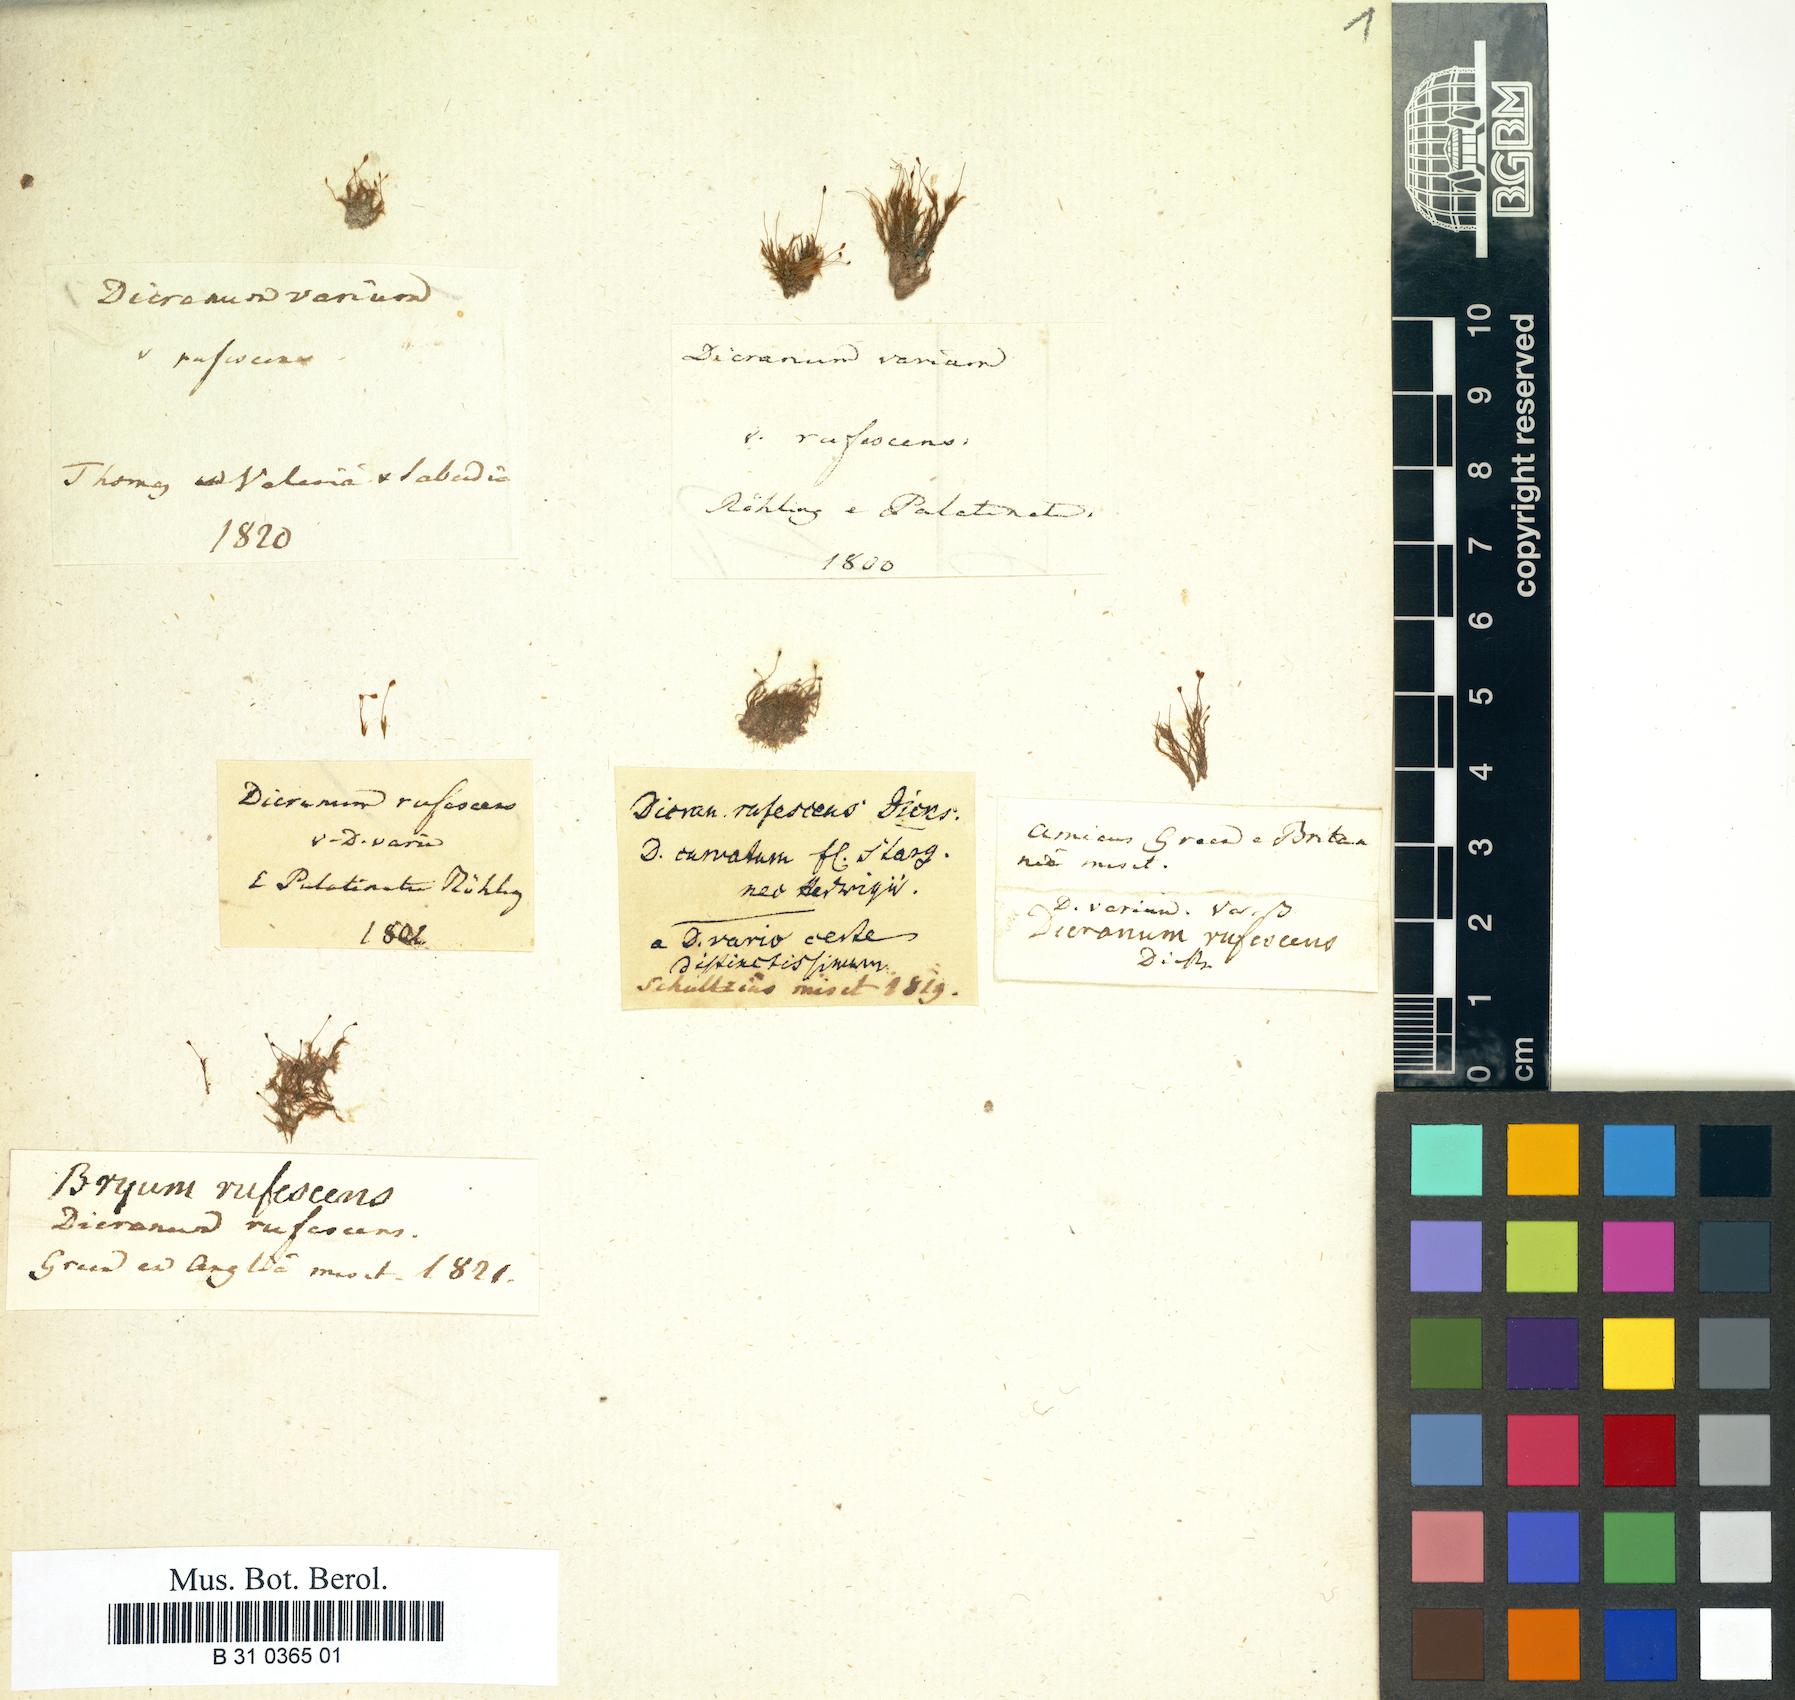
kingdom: Plantae
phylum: Bryophyta
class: Bryopsida
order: Dicranales
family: Dicranellaceae
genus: Dicranella
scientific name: Dicranella rufescens
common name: Red forklet moss
